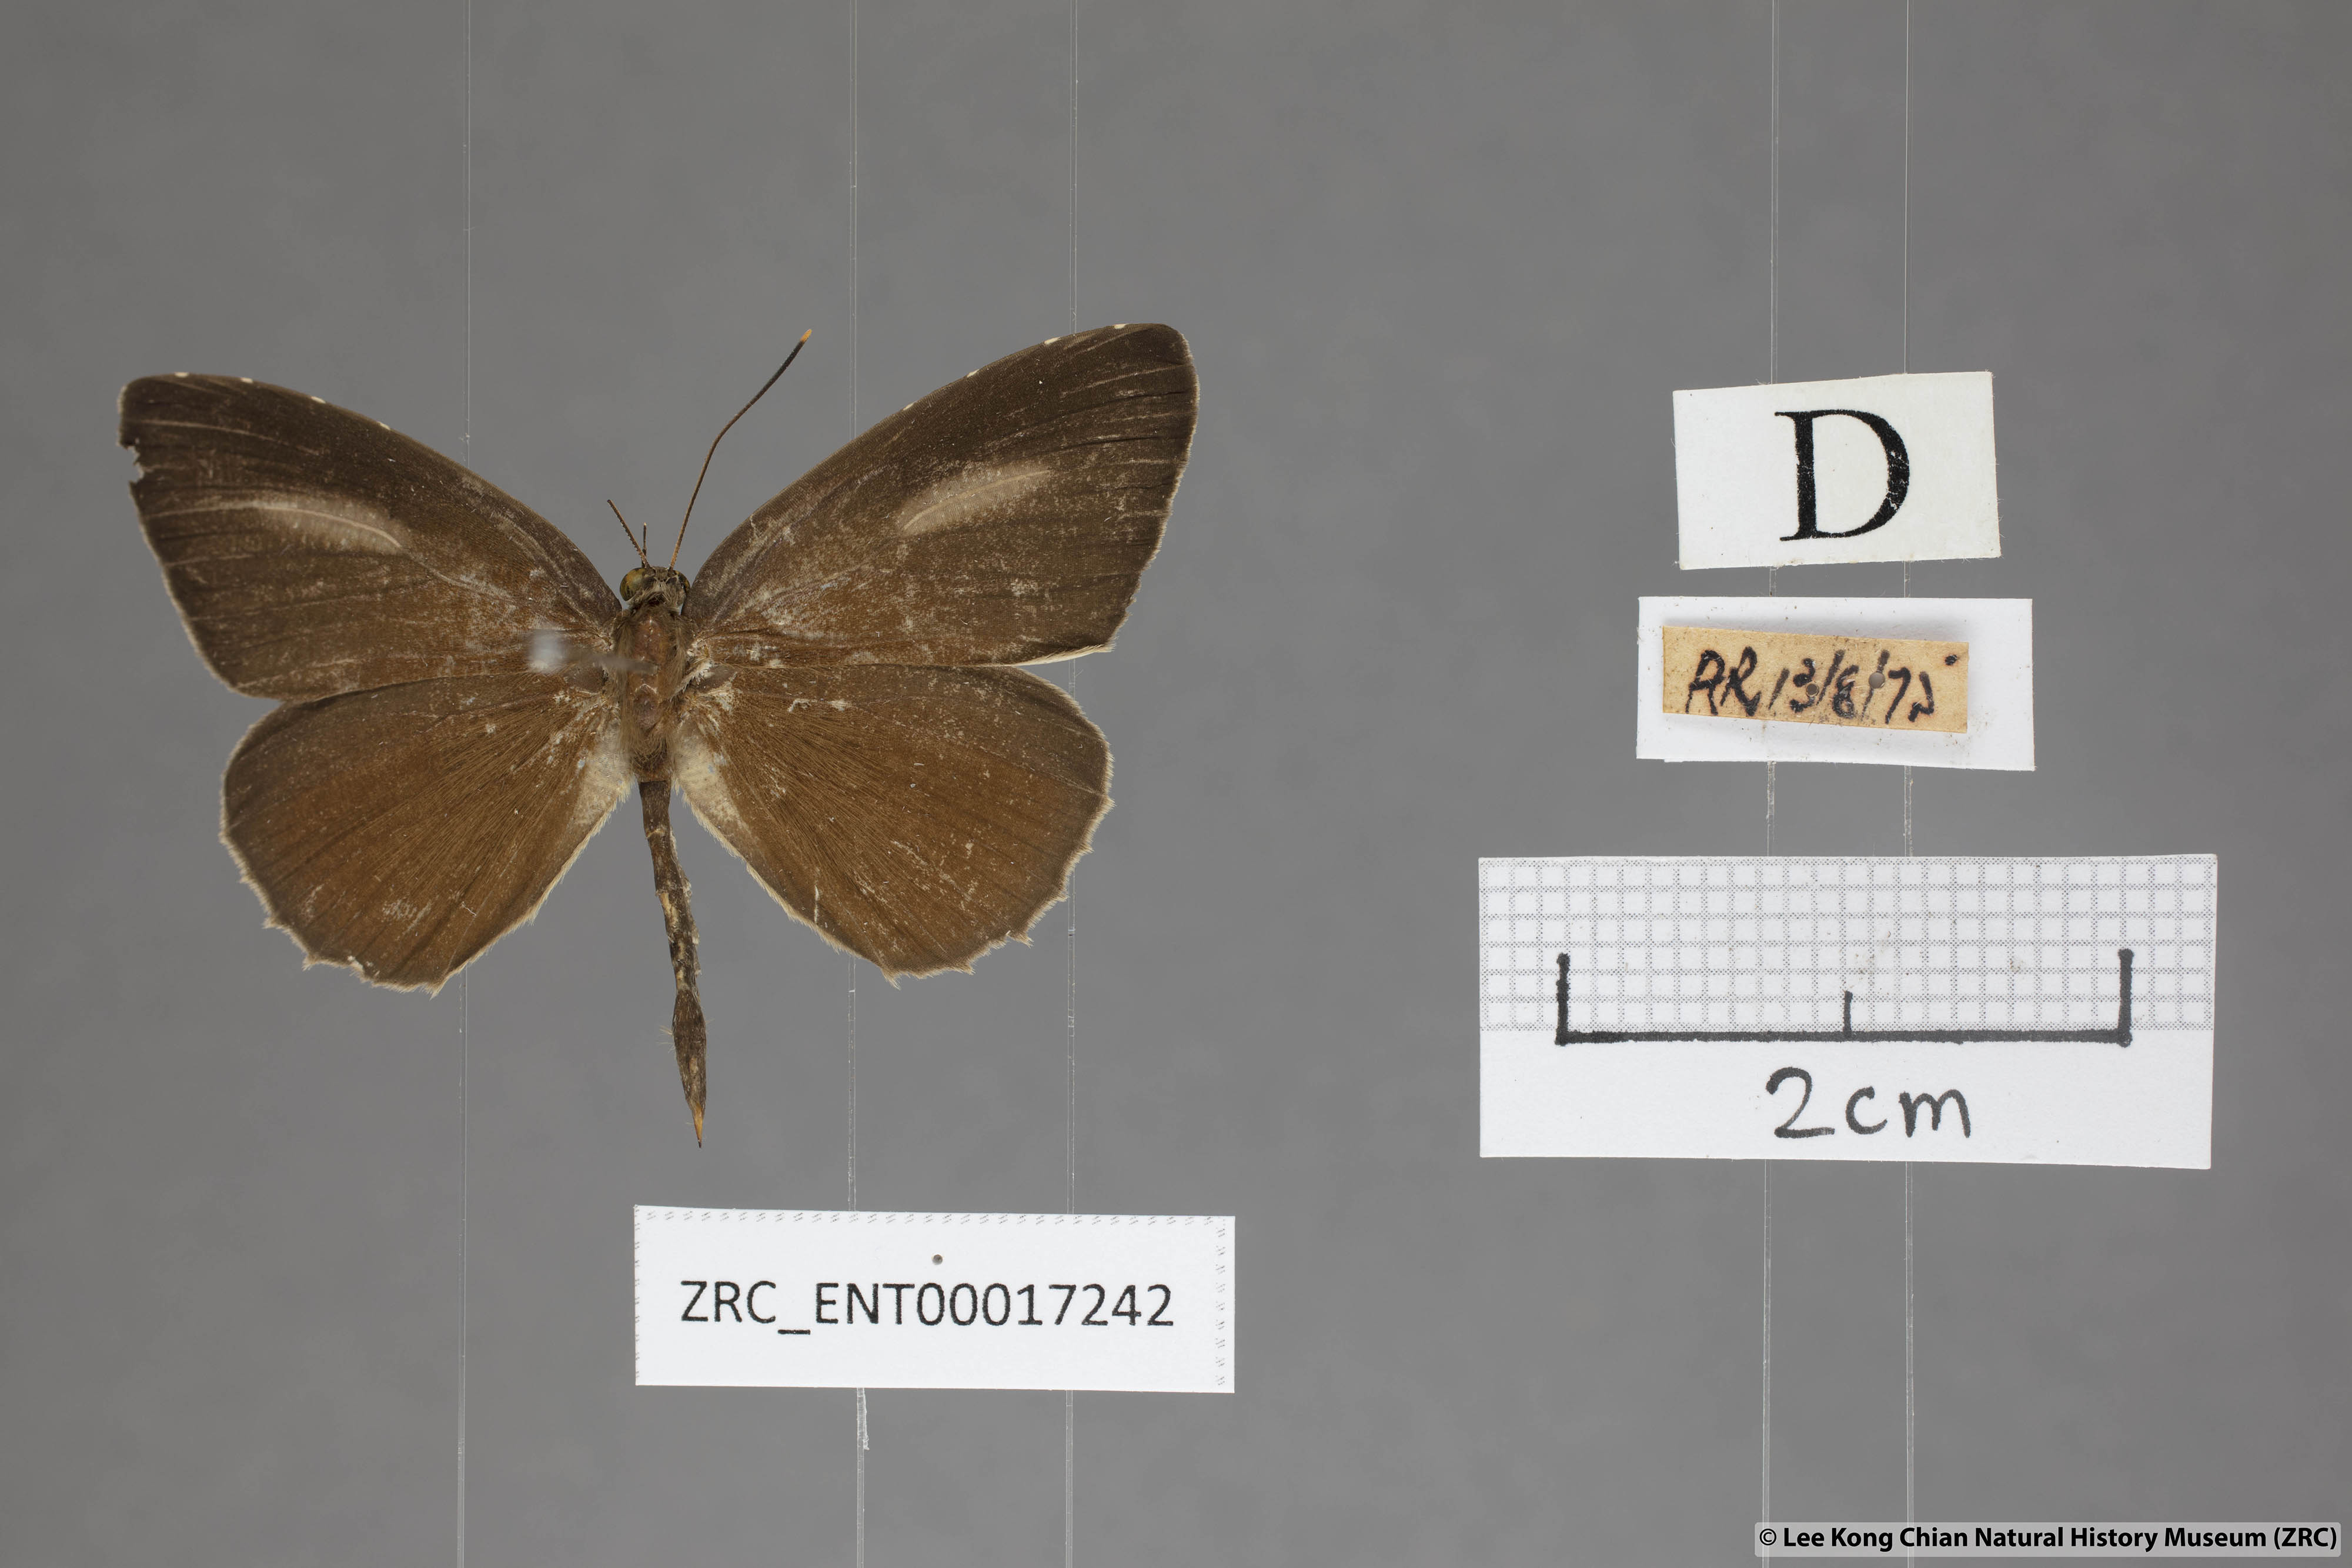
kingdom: Animalia
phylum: Arthropoda
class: Insecta
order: Lepidoptera
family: Lycaenidae
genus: Allotinus
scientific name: Allotinus horsfieldi
